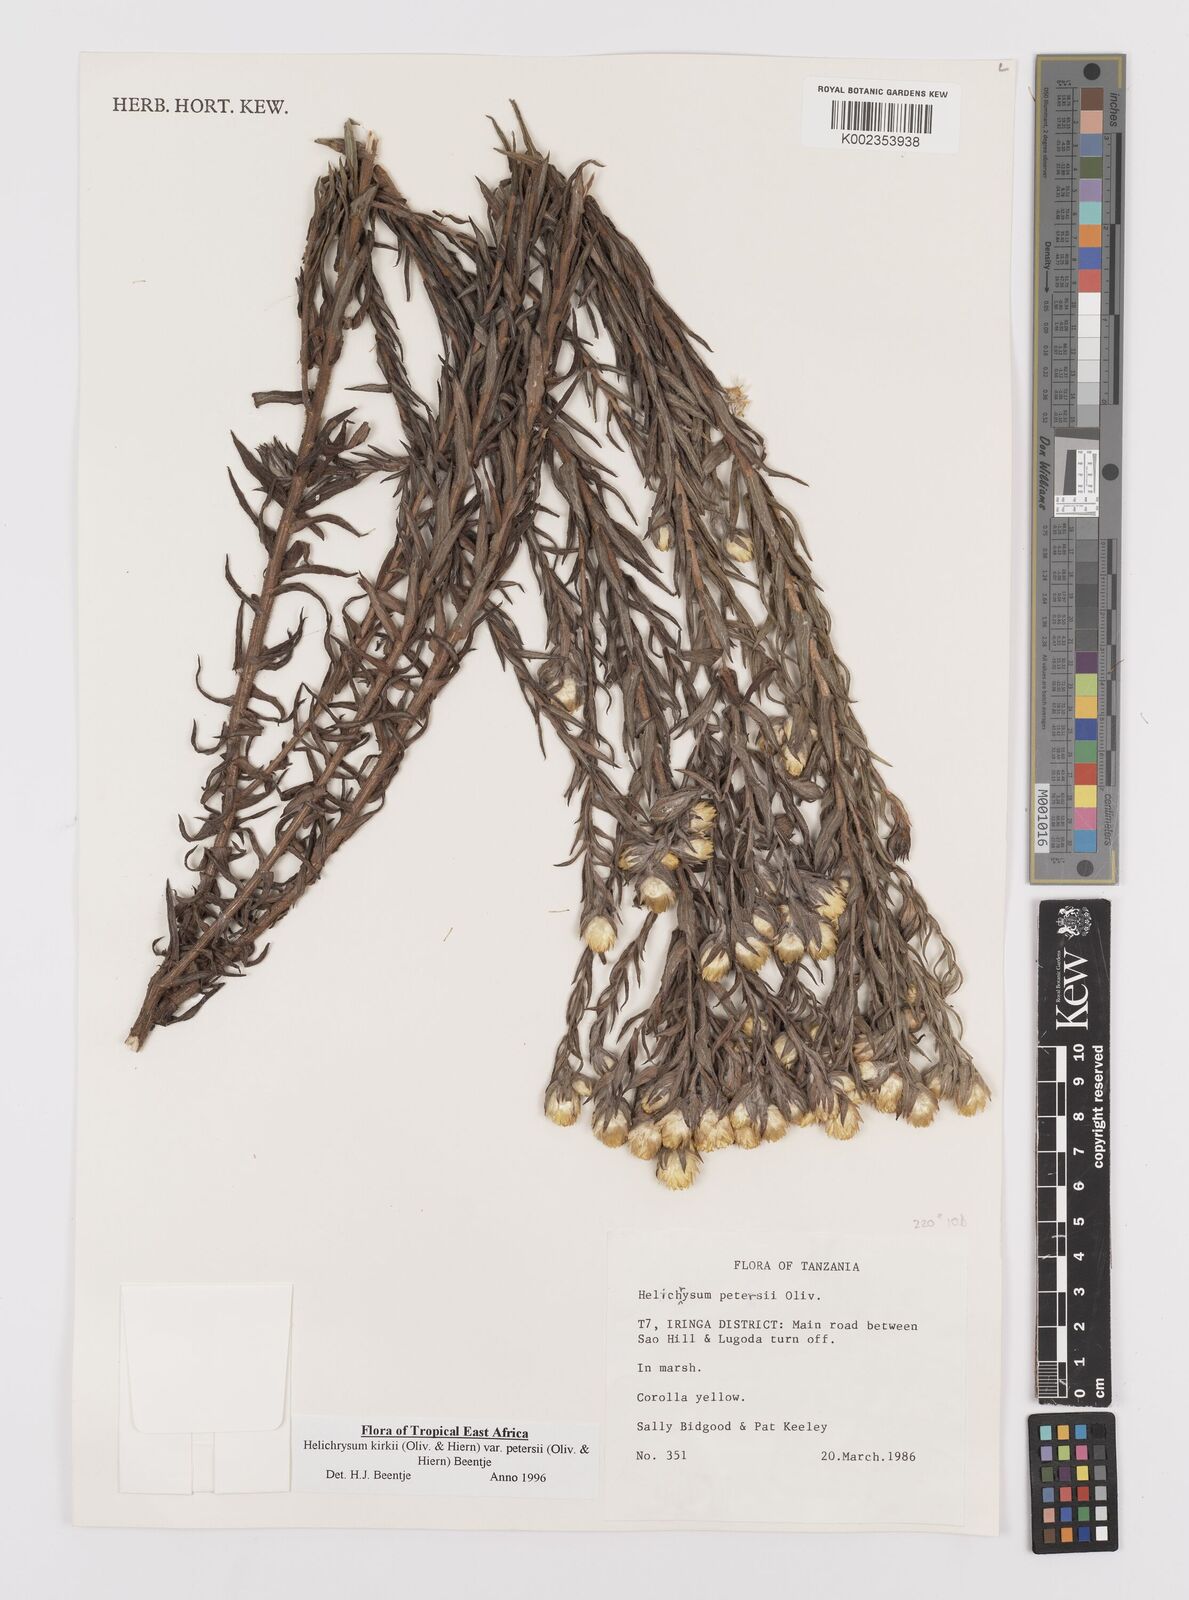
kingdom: Plantae
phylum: Tracheophyta
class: Magnoliopsida
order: Asterales
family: Asteraceae
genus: Helichrysum
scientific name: Helichrysum kirkii
